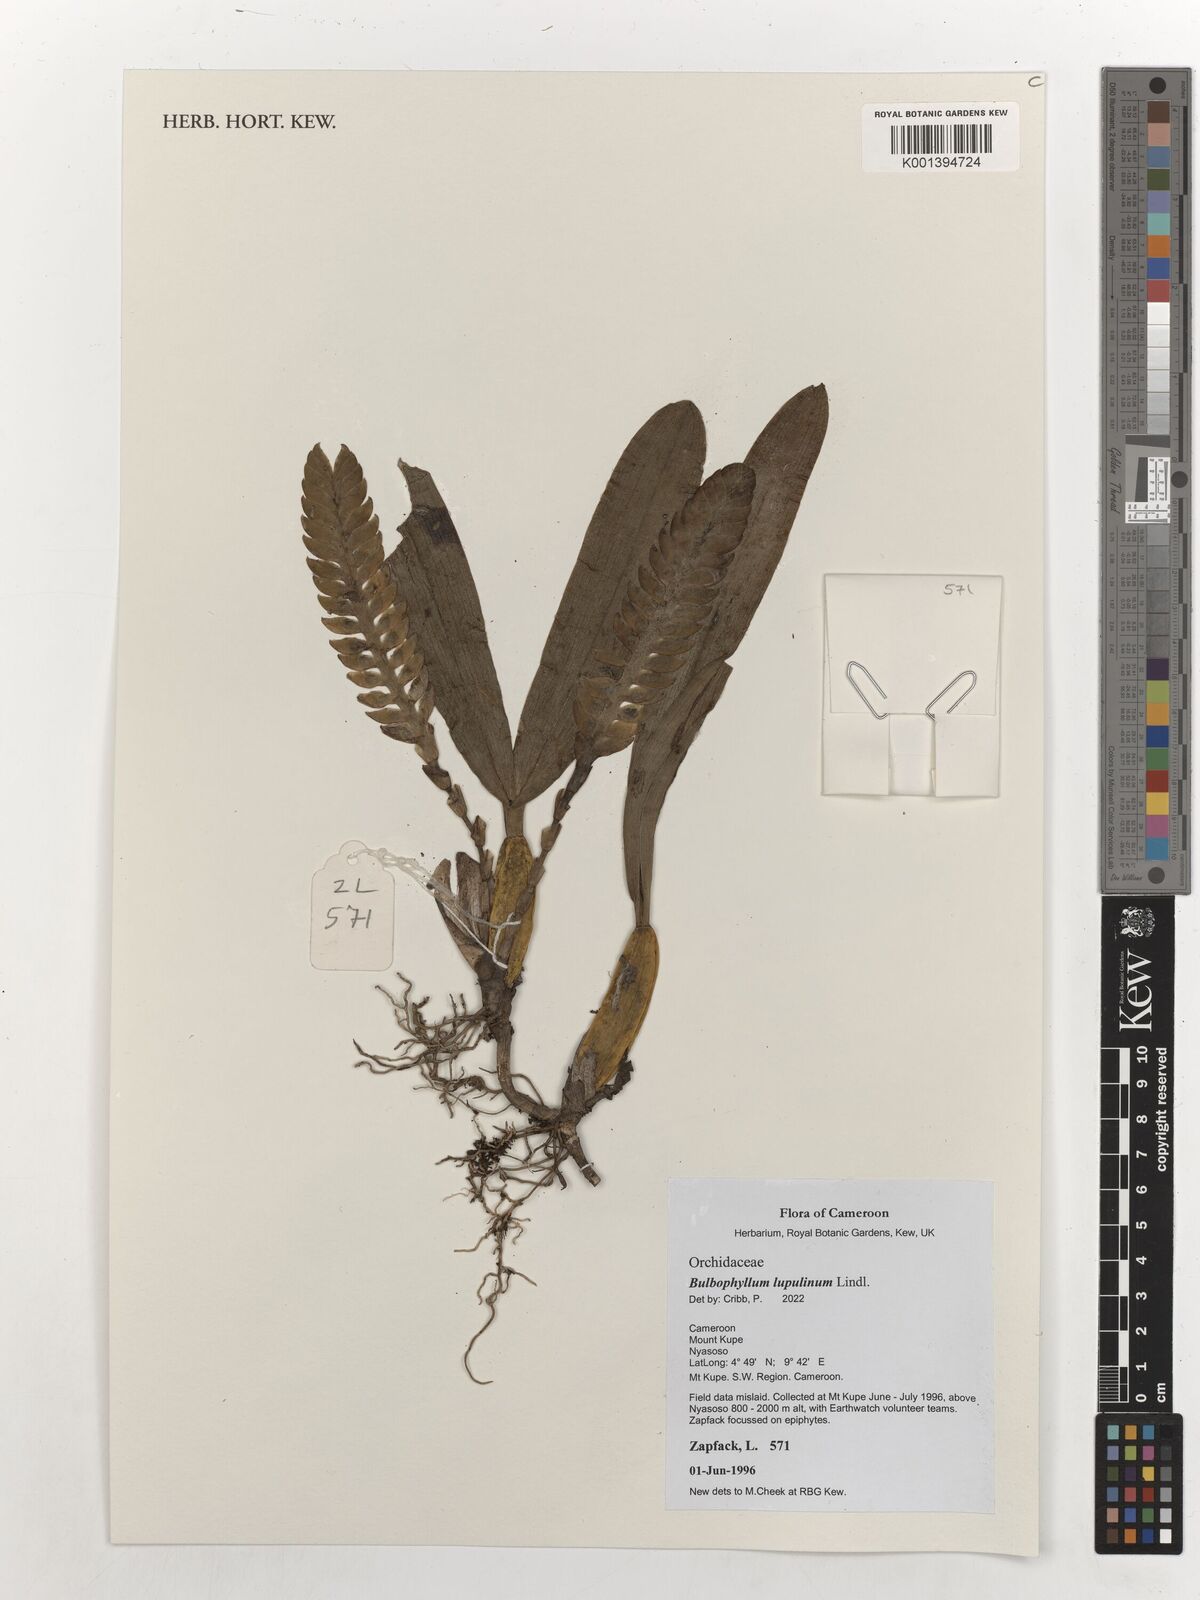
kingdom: Plantae
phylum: Tracheophyta
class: Liliopsida
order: Asparagales
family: Orchidaceae
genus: Bulbophyllum
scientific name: Bulbophyllum lupulinum
